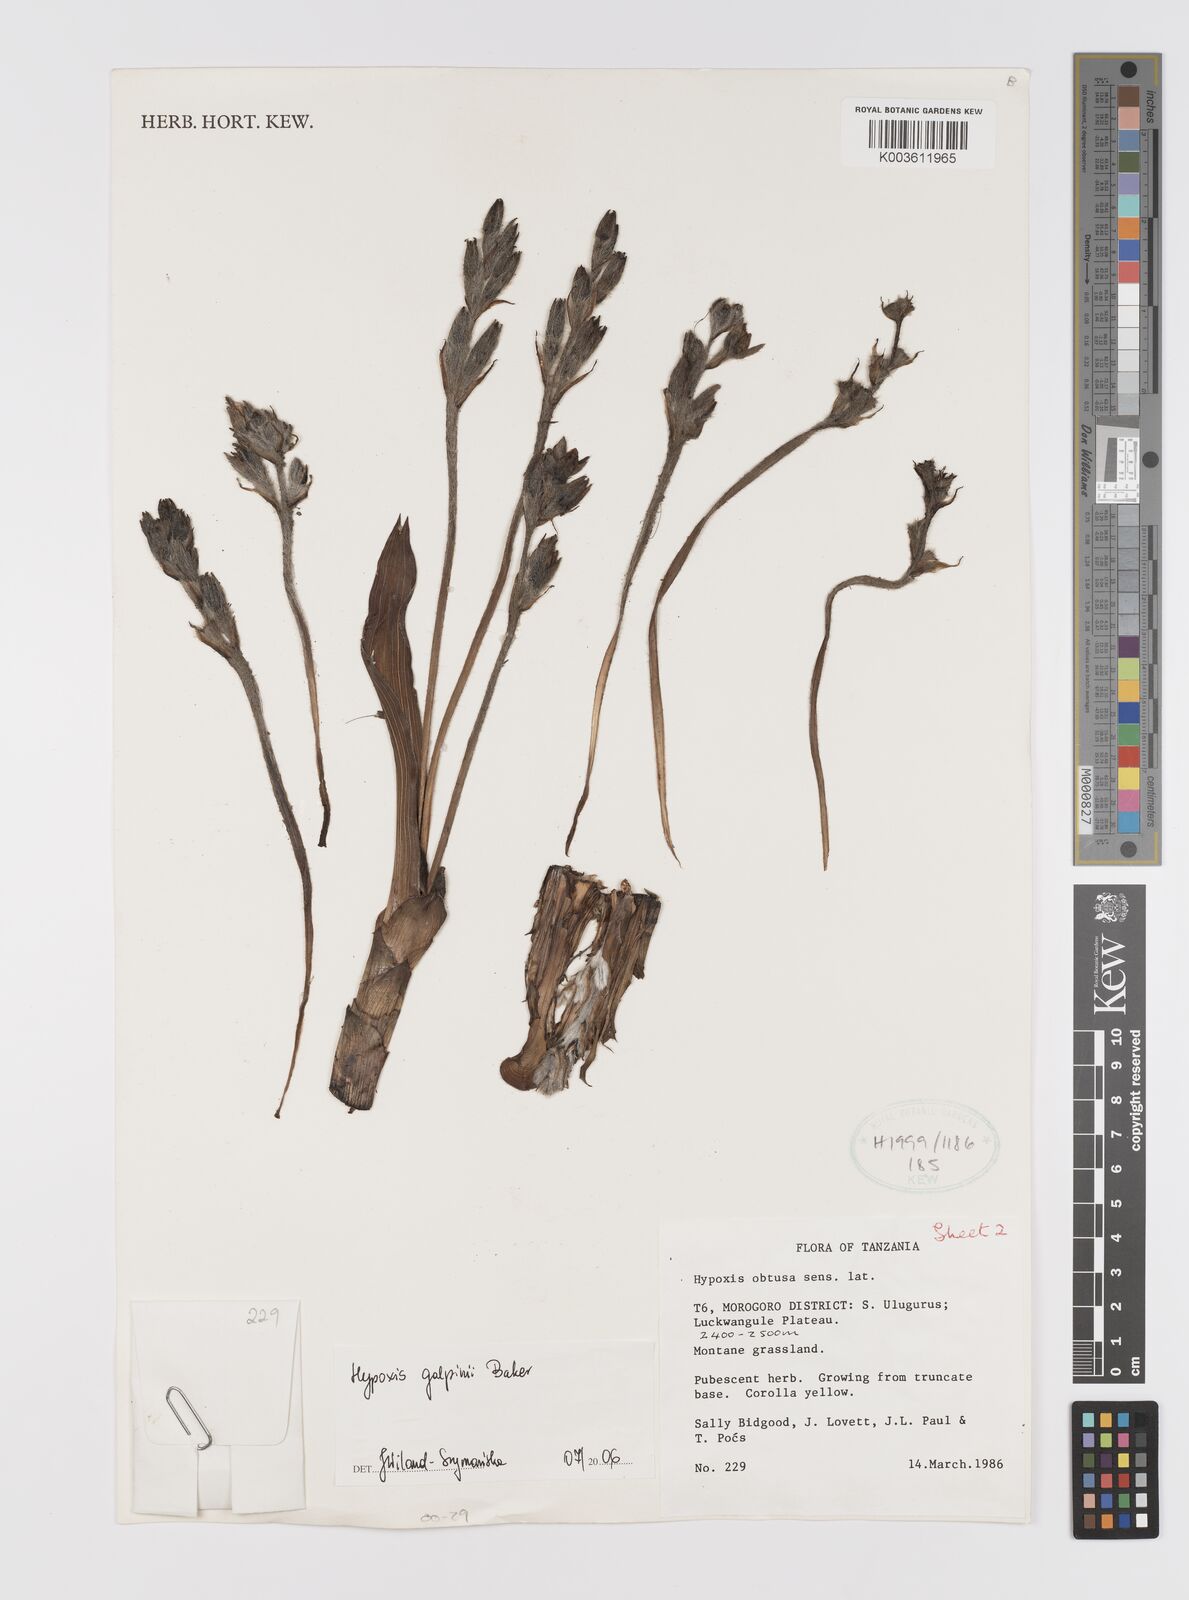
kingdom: Plantae
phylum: Tracheophyta
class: Liliopsida
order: Asparagales
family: Hypoxidaceae
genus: Hypoxis
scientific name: Hypoxis galpinii
